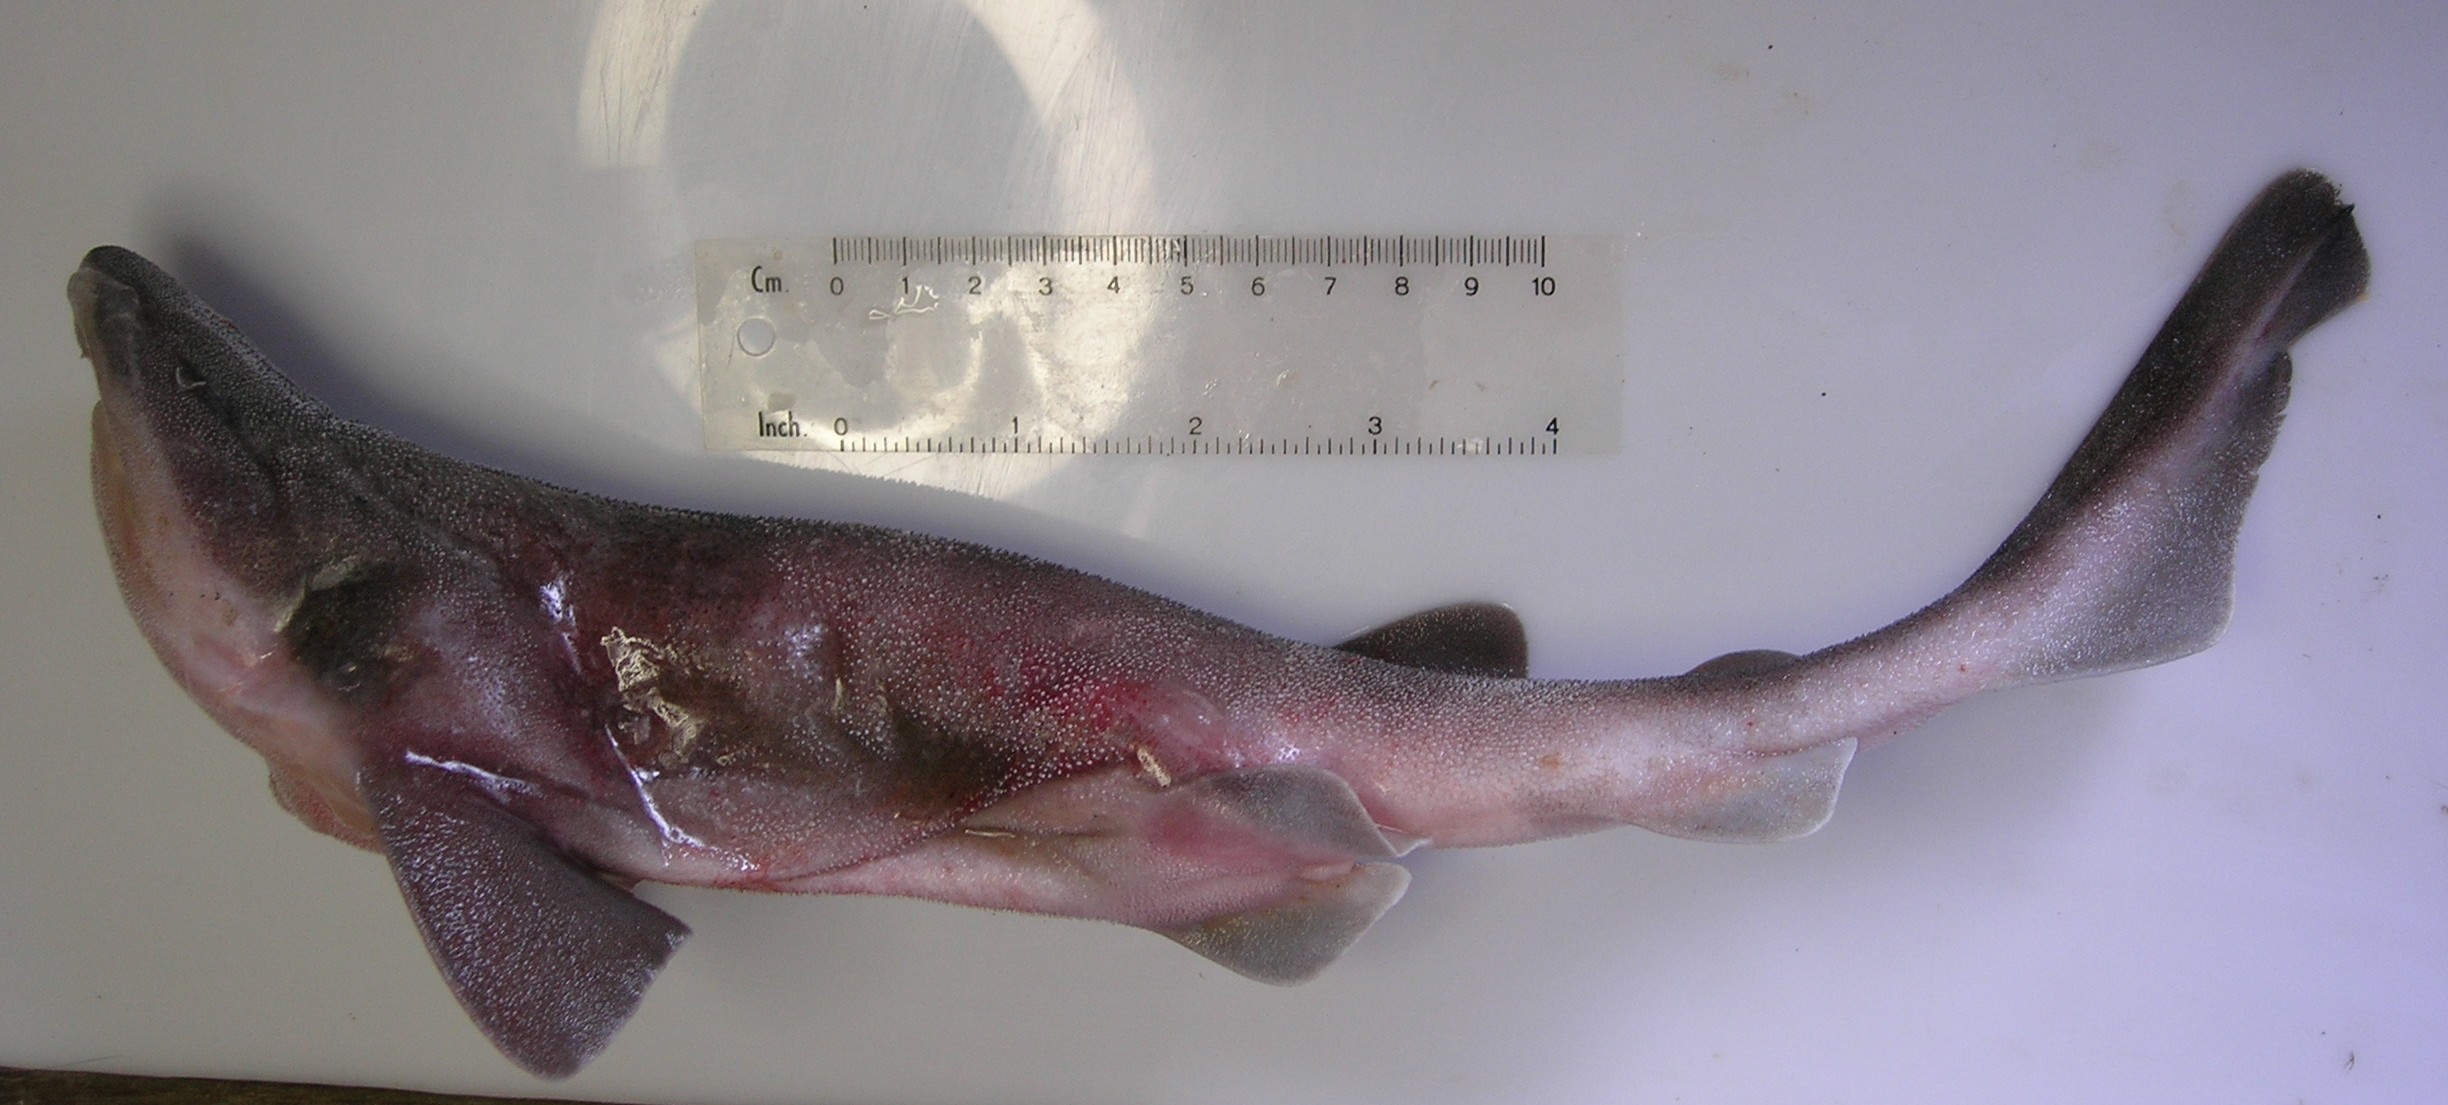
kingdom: Animalia
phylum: Chordata
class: Elasmobranchii
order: Carcharhiniformes
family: Scyliorhinidae
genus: Cephaloscyllium
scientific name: Cephaloscyllium sufflans
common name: Balloon shark
